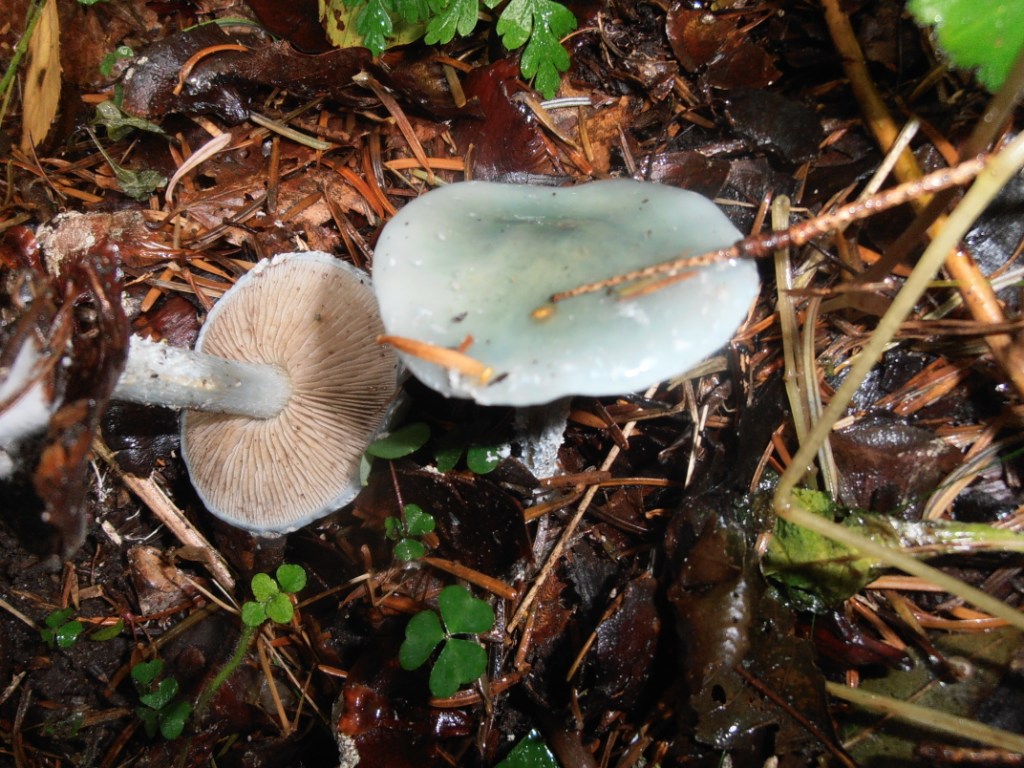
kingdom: Fungi
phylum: Basidiomycota
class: Agaricomycetes
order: Agaricales
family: Strophariaceae
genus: Stropharia
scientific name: Stropharia cyanea
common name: blågrøn bredblad
